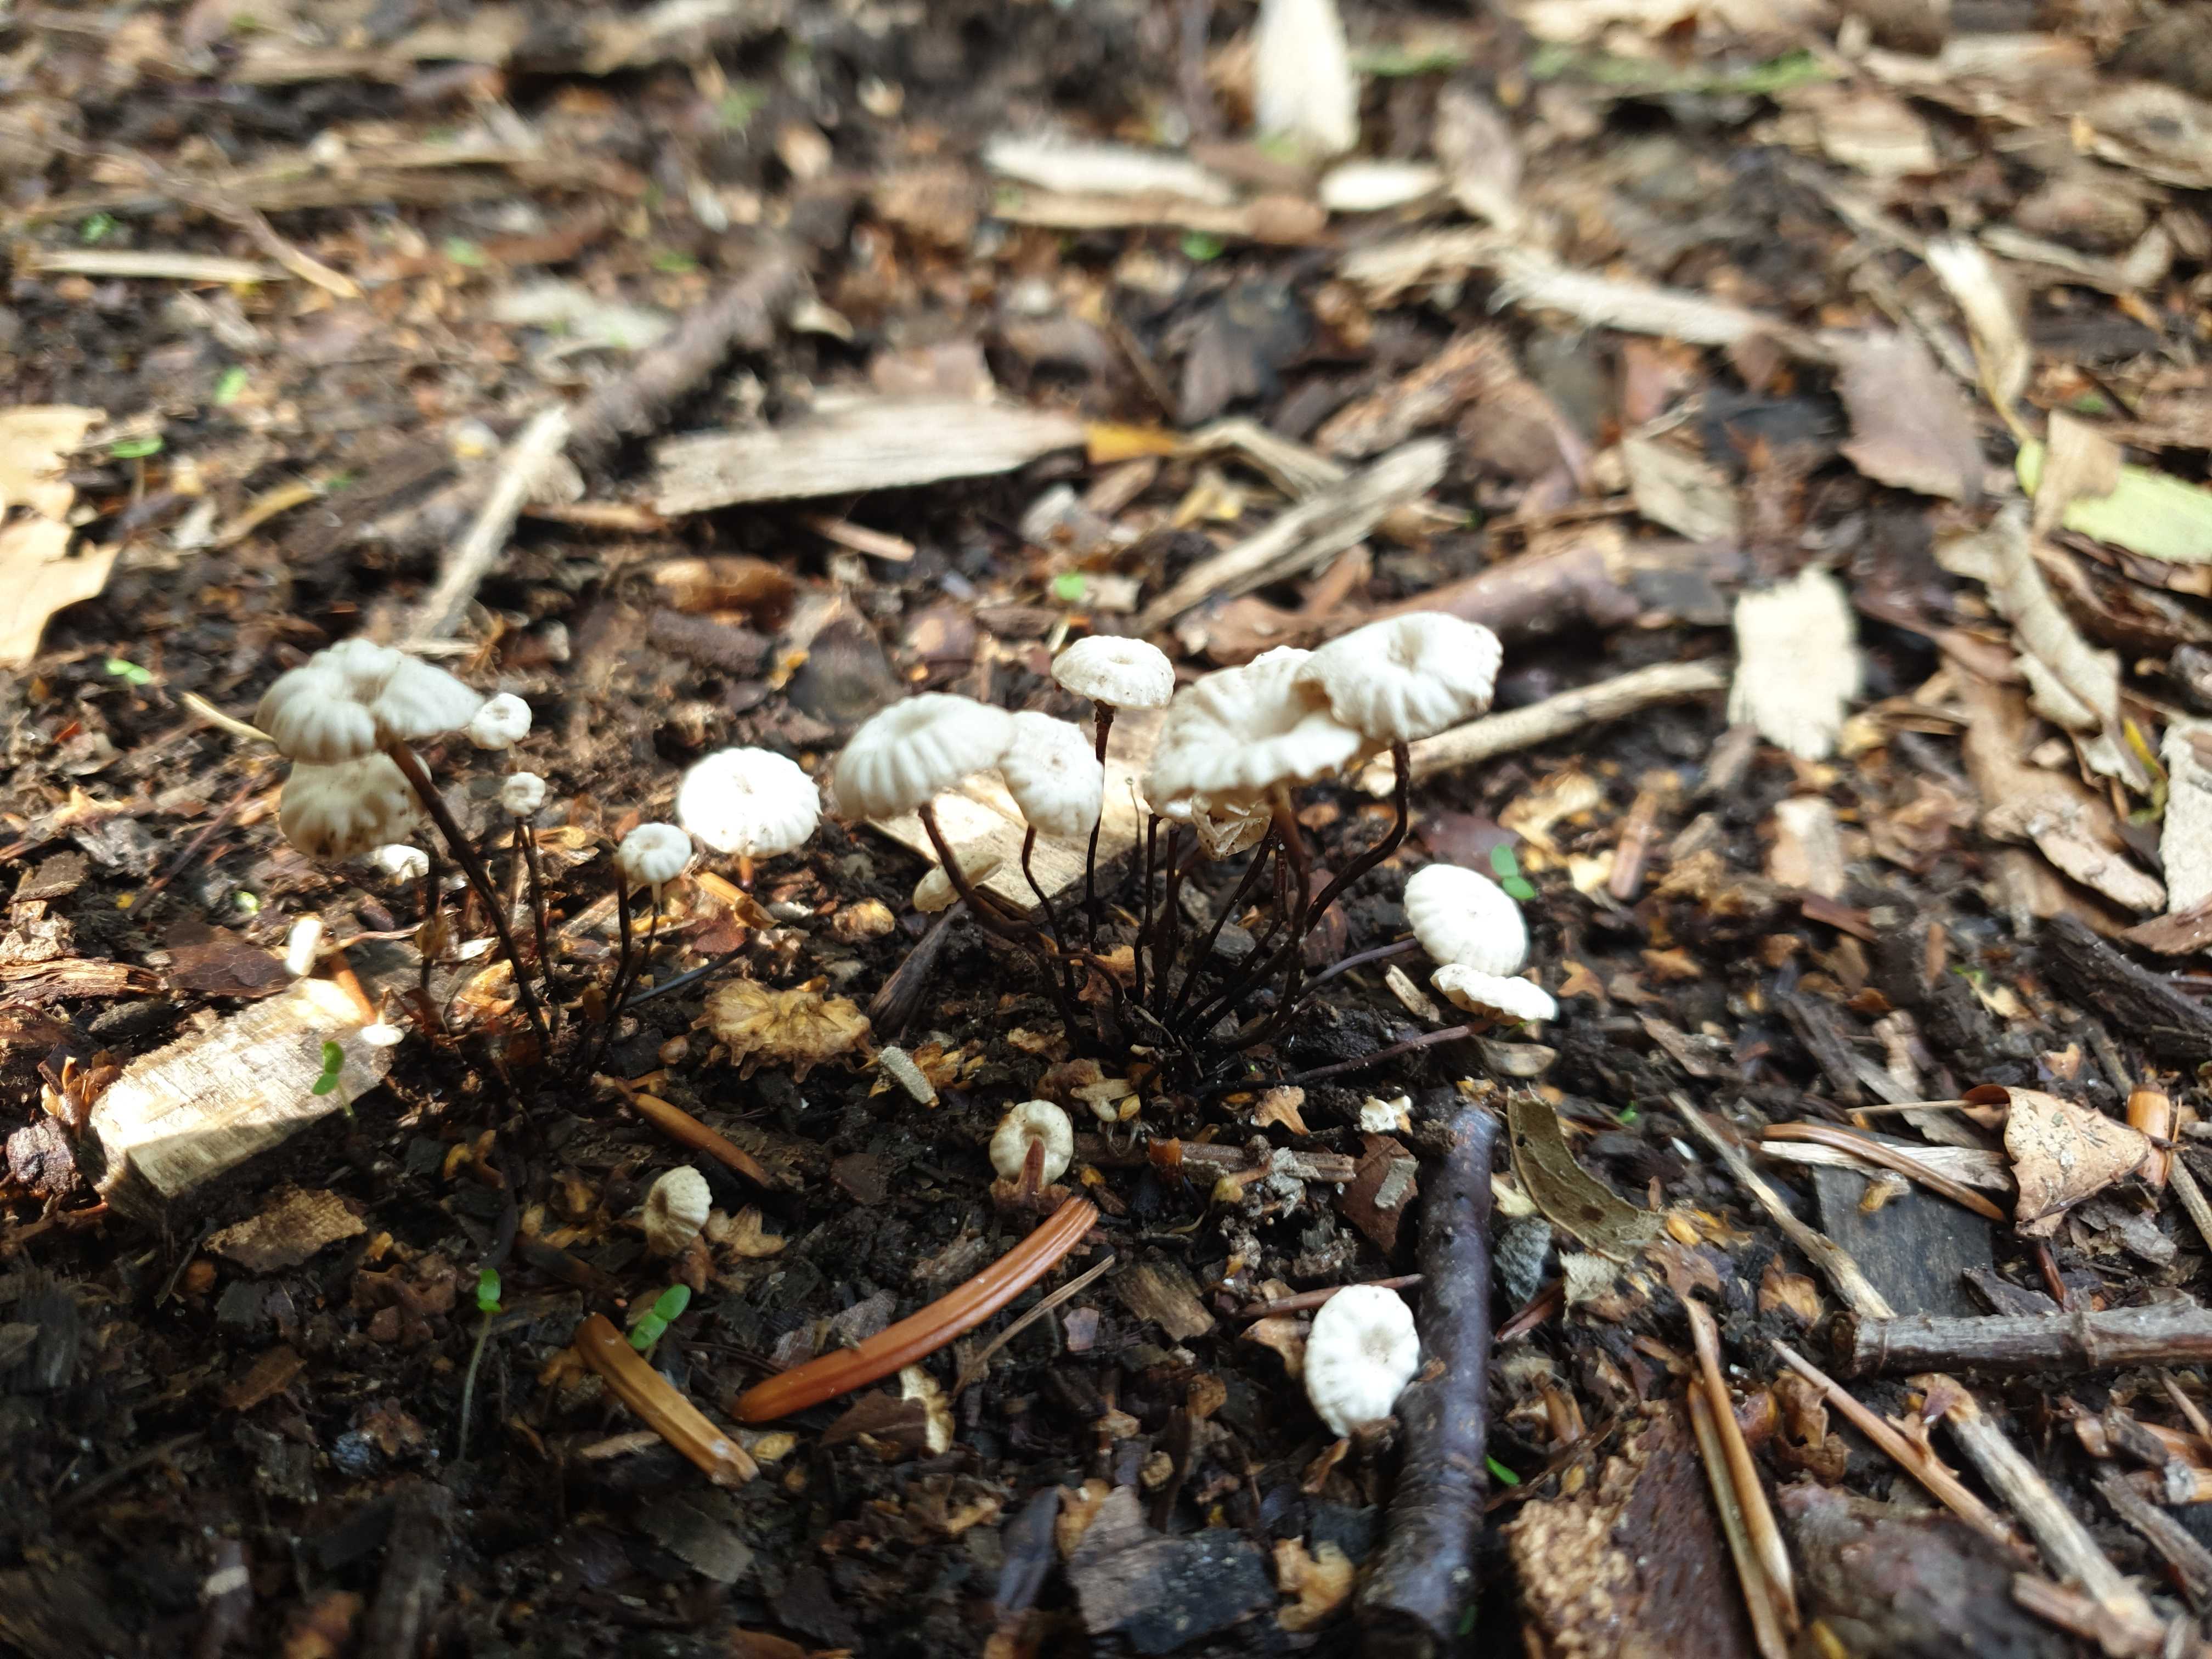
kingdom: Fungi
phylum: Basidiomycota
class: Agaricomycetes
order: Agaricales
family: Marasmiaceae
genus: Marasmius
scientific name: Marasmius rotula
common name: hjul-bruskhat
